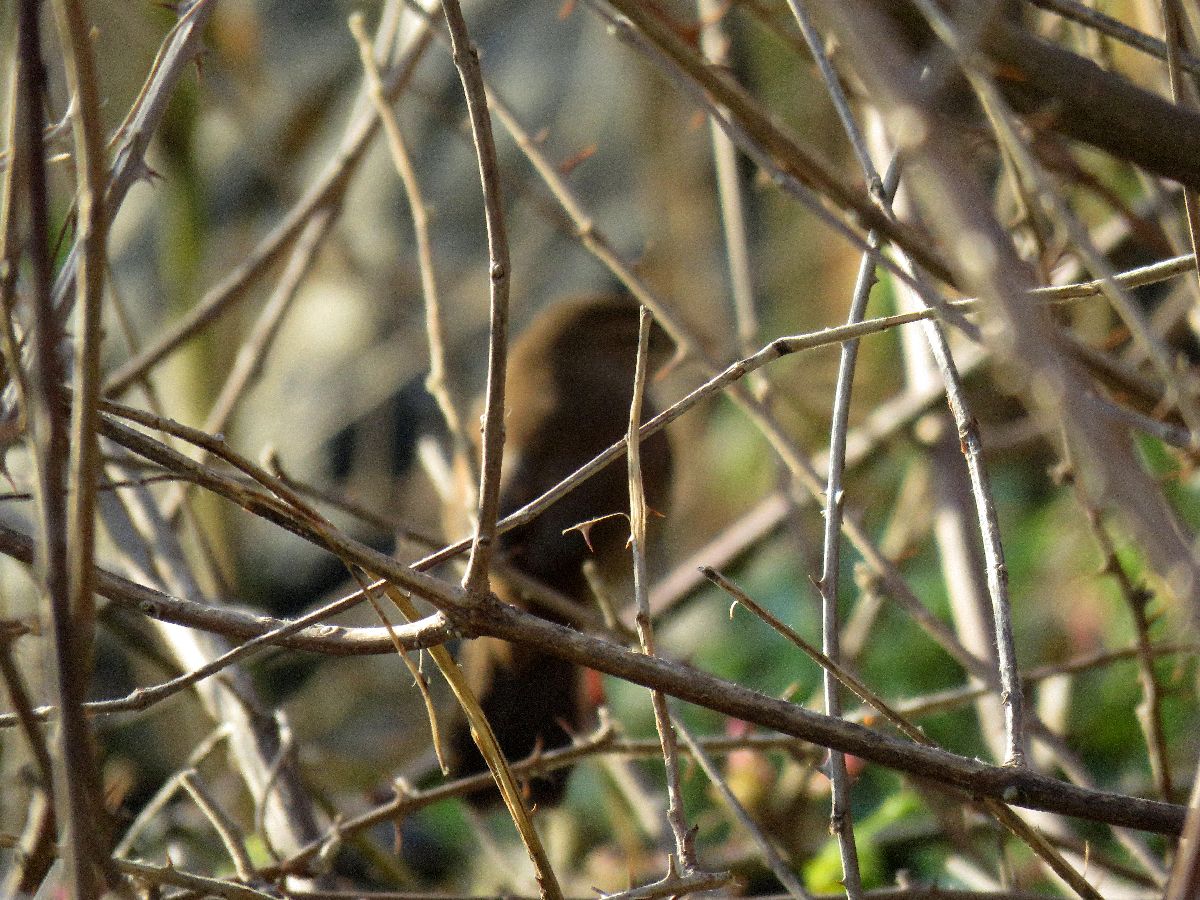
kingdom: Animalia
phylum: Chordata
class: Aves
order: Passeriformes
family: Cettiidae
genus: Cettia
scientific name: Cettia cetti
